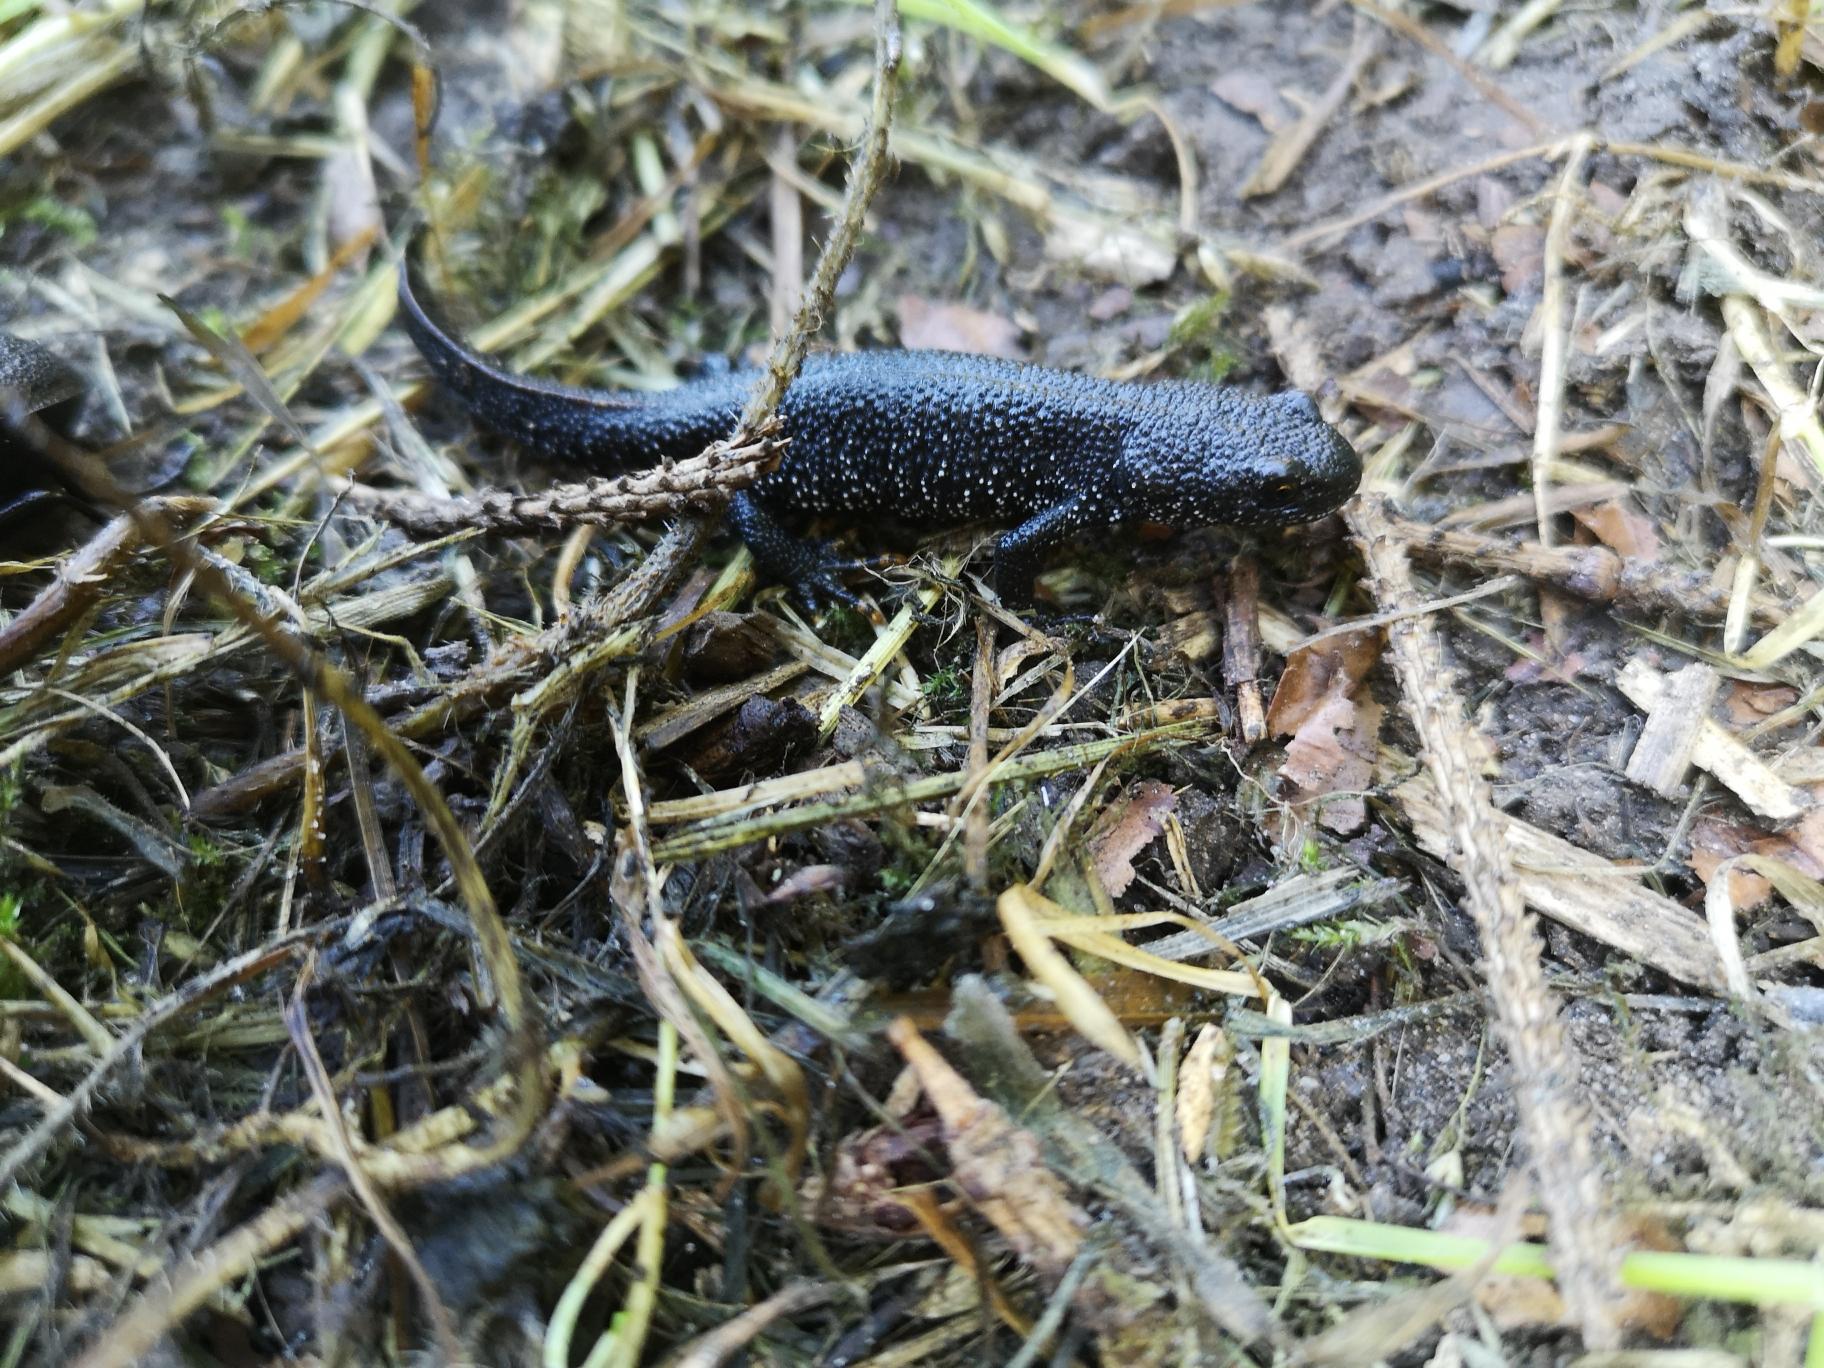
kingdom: Animalia
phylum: Chordata
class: Amphibia
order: Caudata
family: Salamandridae
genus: Triturus
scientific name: Triturus cristatus
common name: Stor vandsalamander
